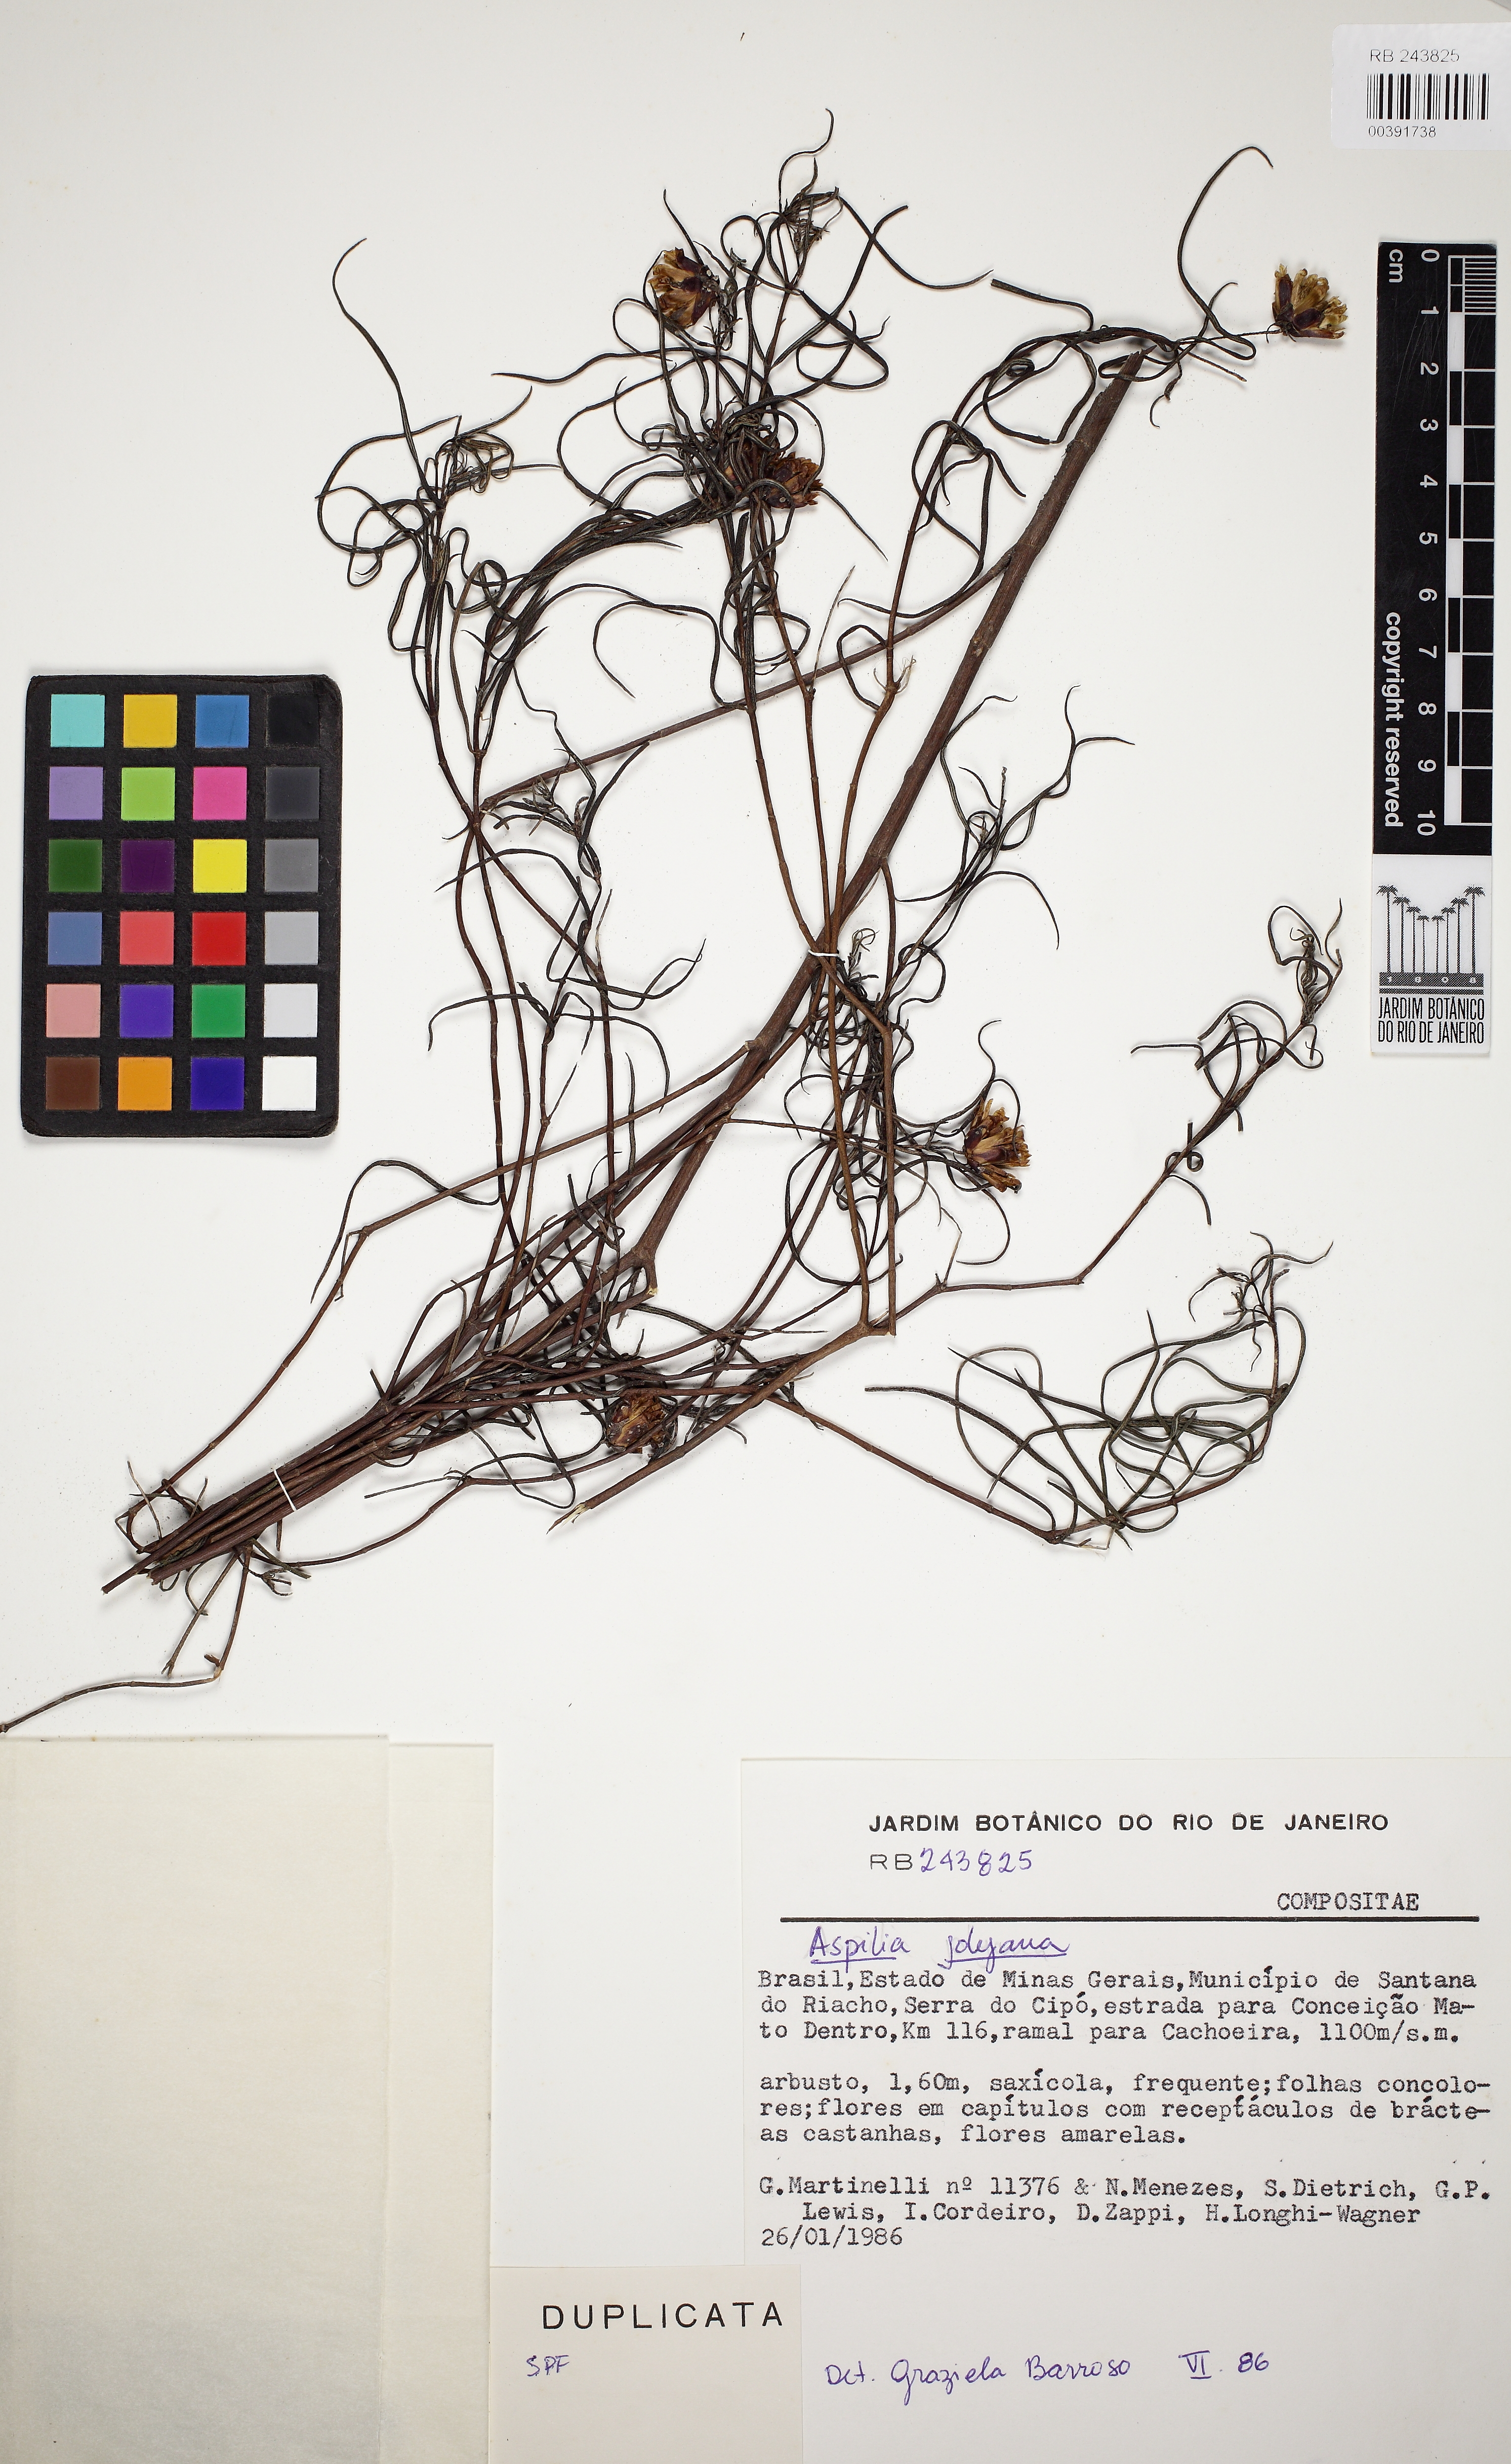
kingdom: Plantae
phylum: Tracheophyta
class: Magnoliopsida
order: Asterales
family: Asteraceae
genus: Aspilia
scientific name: Aspilia jolyana
